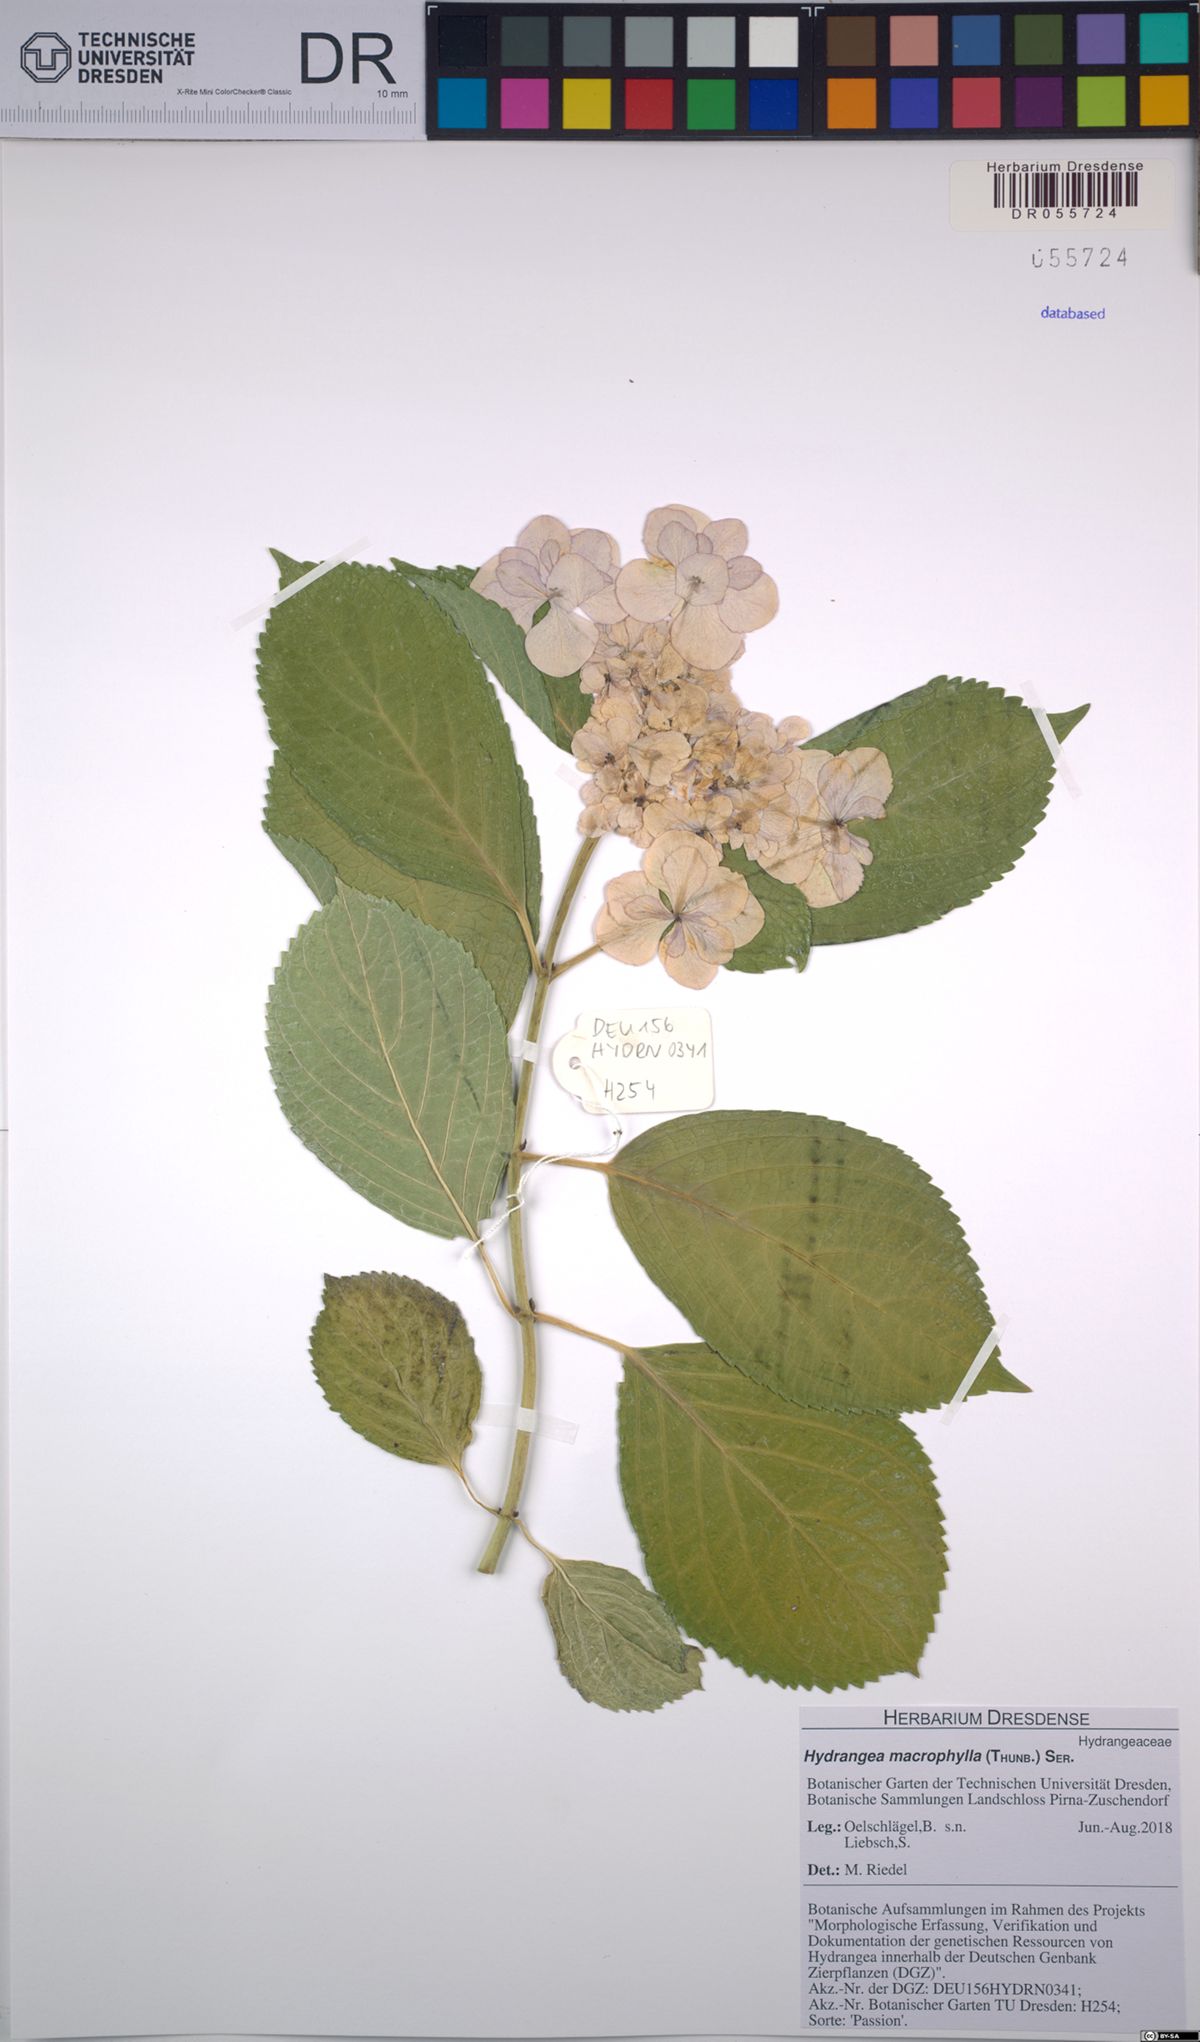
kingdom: Plantae
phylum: Tracheophyta
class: Magnoliopsida
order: Cornales
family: Hydrangeaceae
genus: Hydrangea
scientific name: Hydrangea macrophylla
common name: Hydrangea
